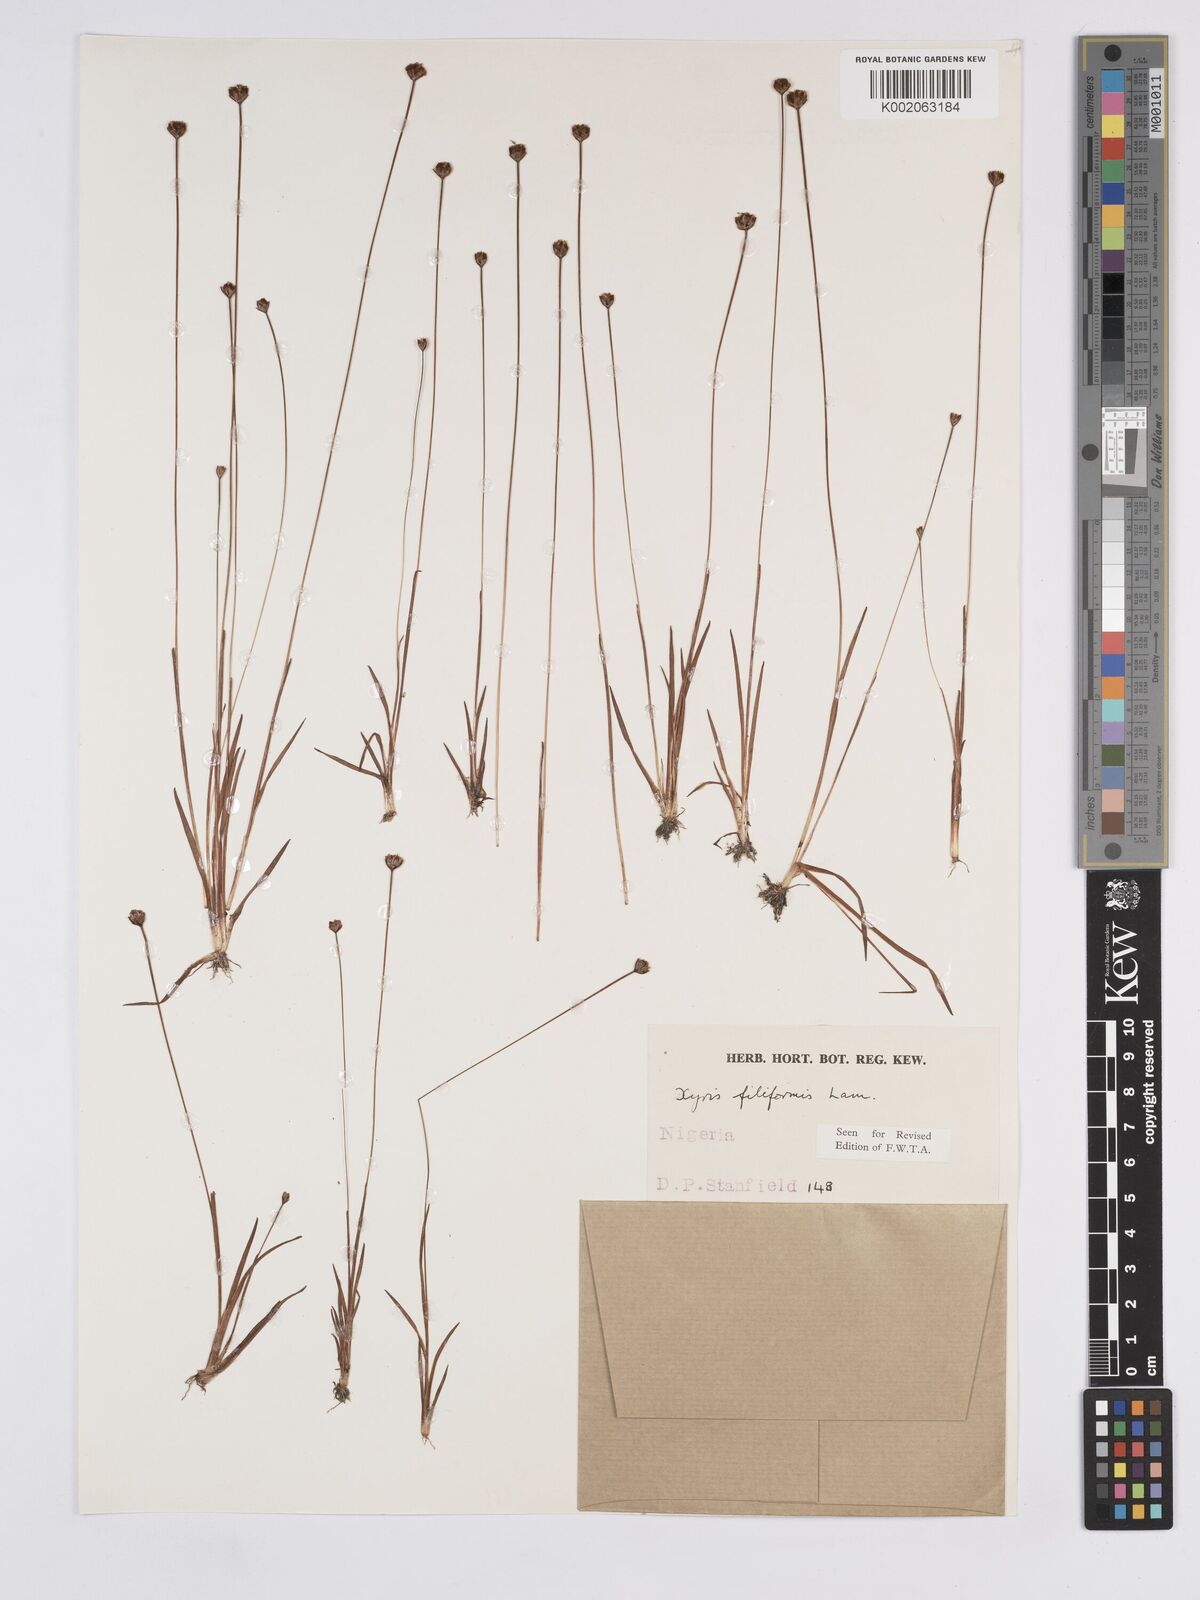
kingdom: Plantae
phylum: Tracheophyta
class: Liliopsida
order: Poales
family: Xyridaceae
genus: Xyris
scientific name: Xyris filiformis
